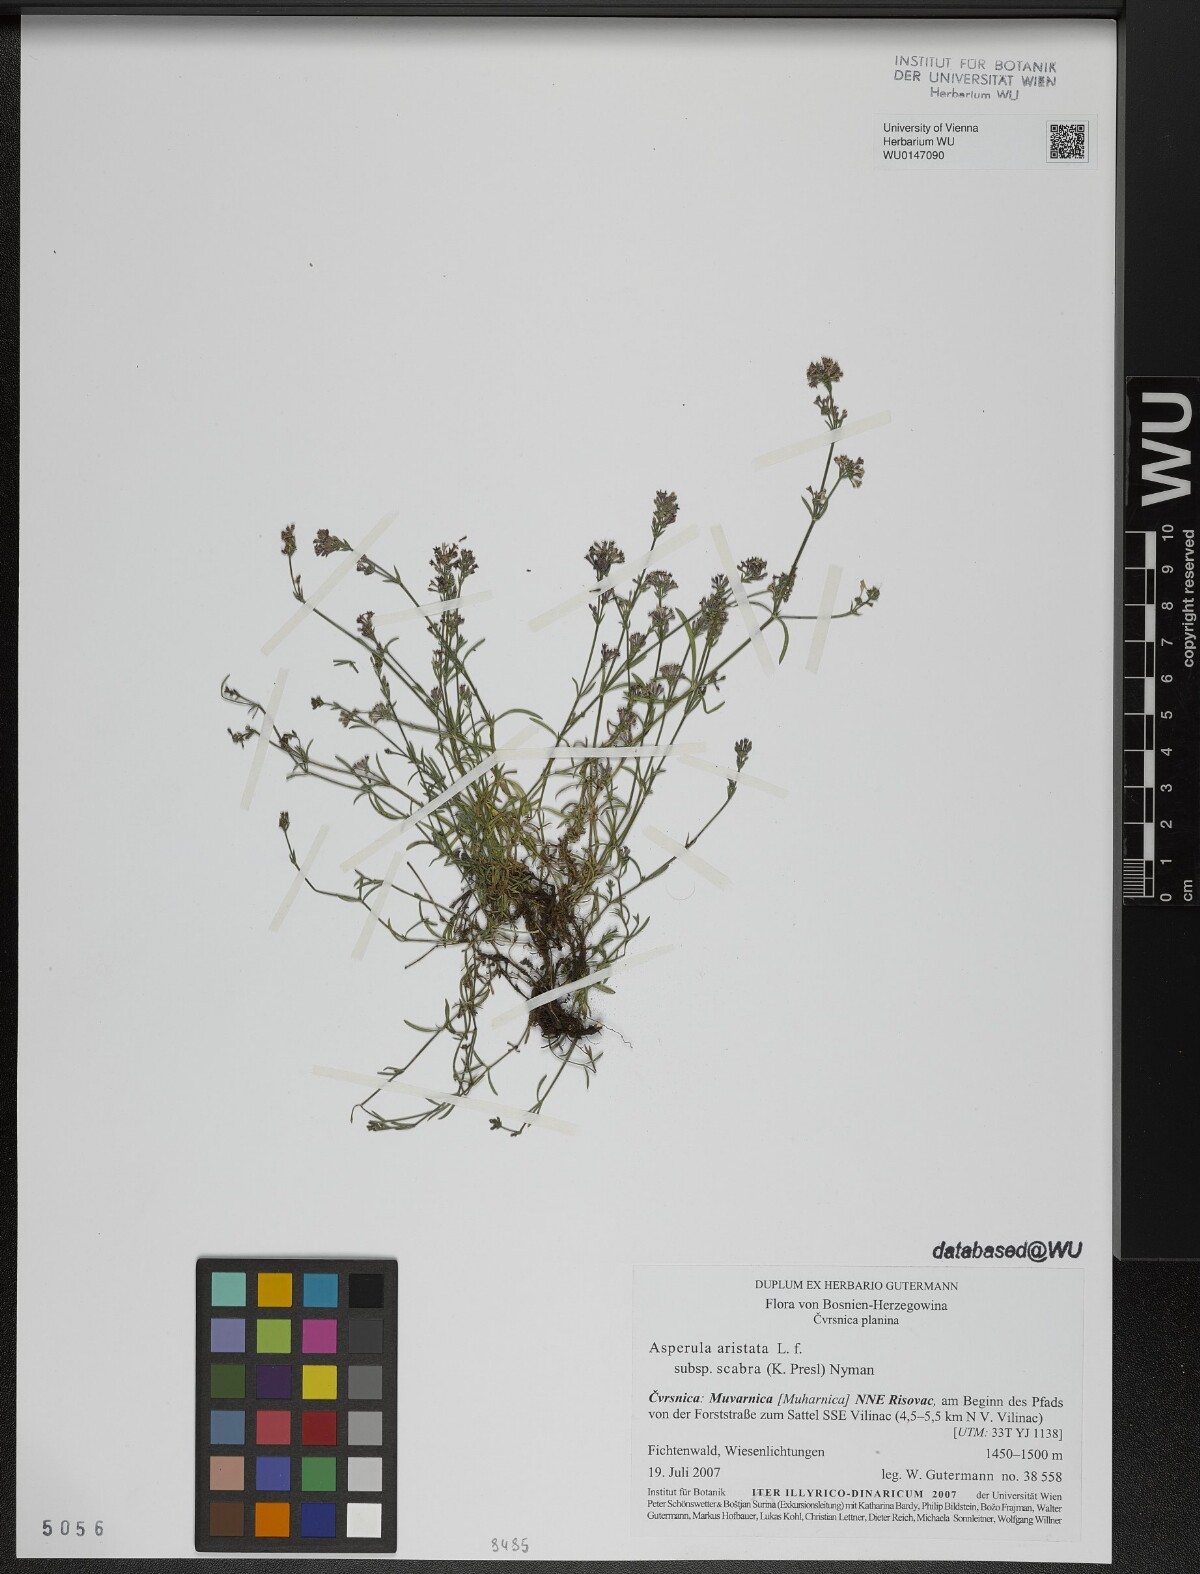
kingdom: Plantae
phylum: Tracheophyta
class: Magnoliopsida
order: Gentianales
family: Rubiaceae
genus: Cynanchica
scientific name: Cynanchica aristata
